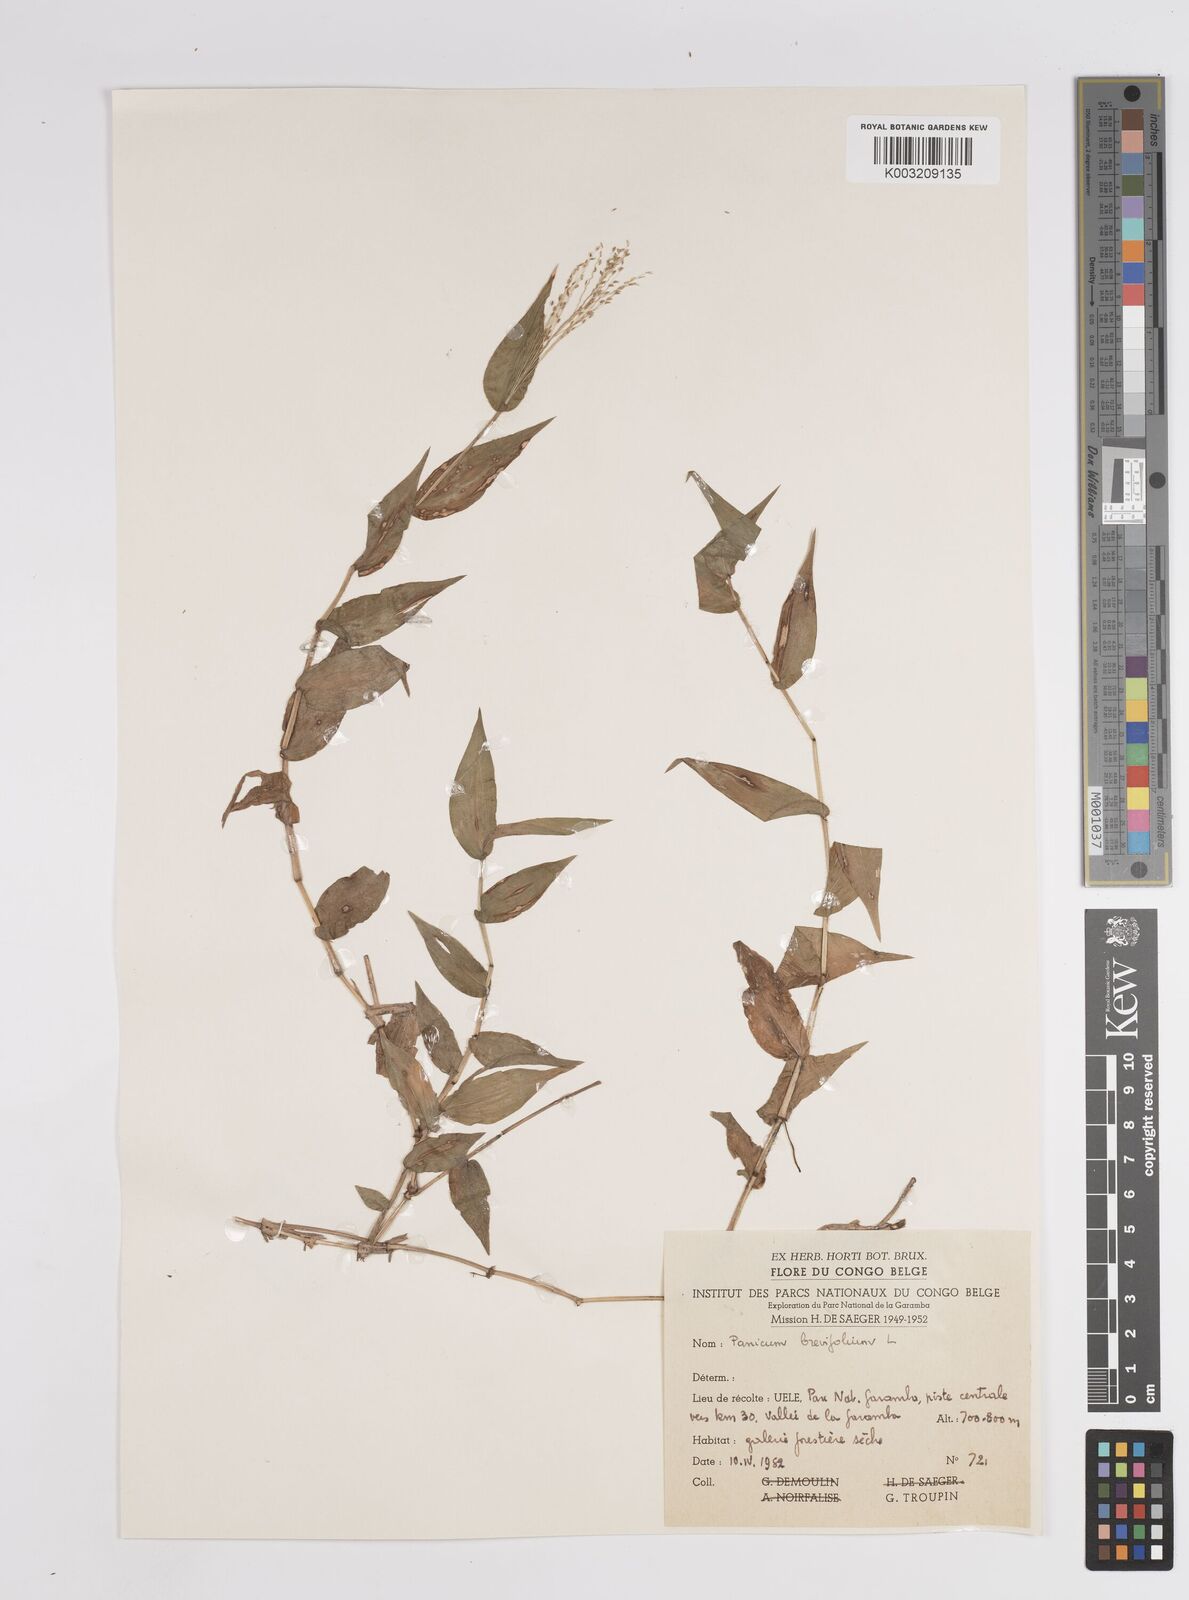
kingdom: Plantae
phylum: Tracheophyta
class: Liliopsida
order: Poales
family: Poaceae
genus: Panicum
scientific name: Panicum brevifolium
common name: Shortleaf panic grass
